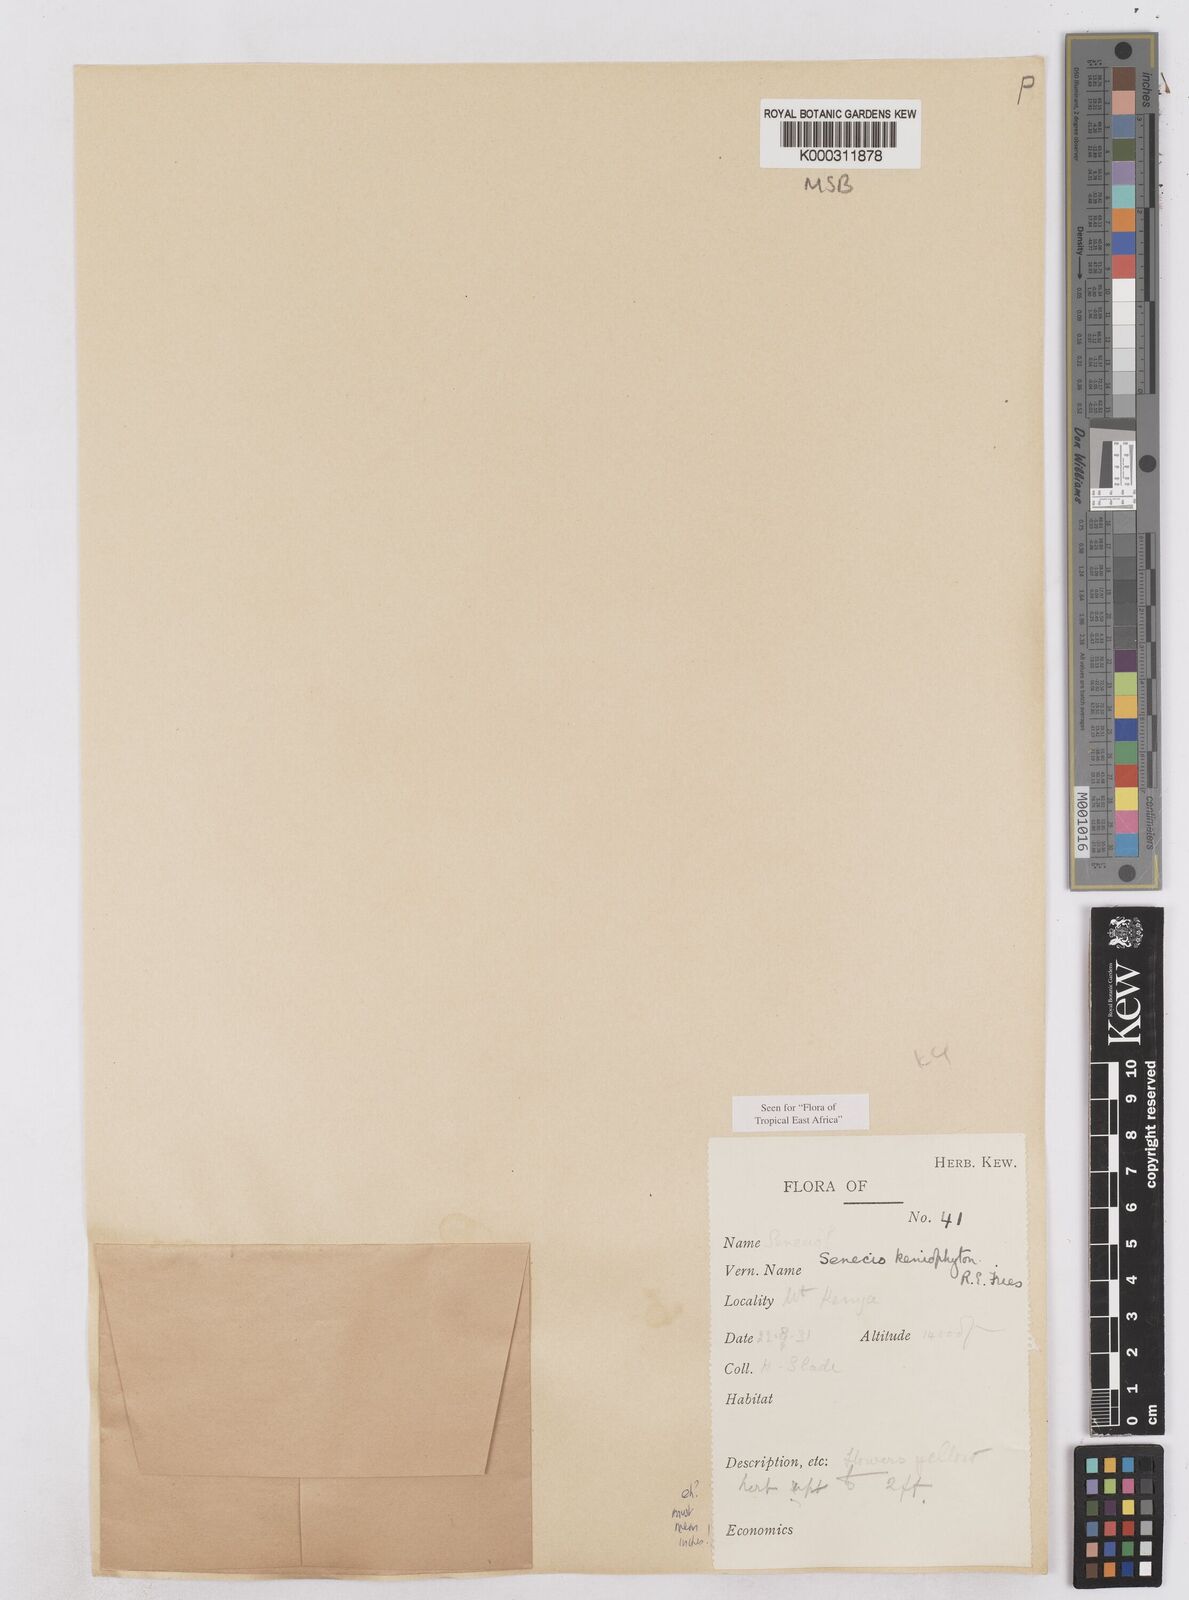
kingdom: Plantae
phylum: Tracheophyta
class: Magnoliopsida
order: Asterales
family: Asteraceae
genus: Senecio
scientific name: Senecio keniophytum
